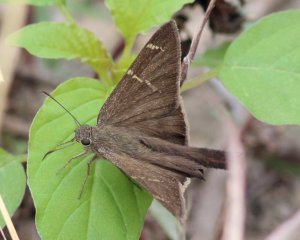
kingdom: Animalia
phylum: Arthropoda
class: Insecta
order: Lepidoptera
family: Hesperiidae
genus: Urbanus
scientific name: Urbanus procne
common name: Brown Longtail
